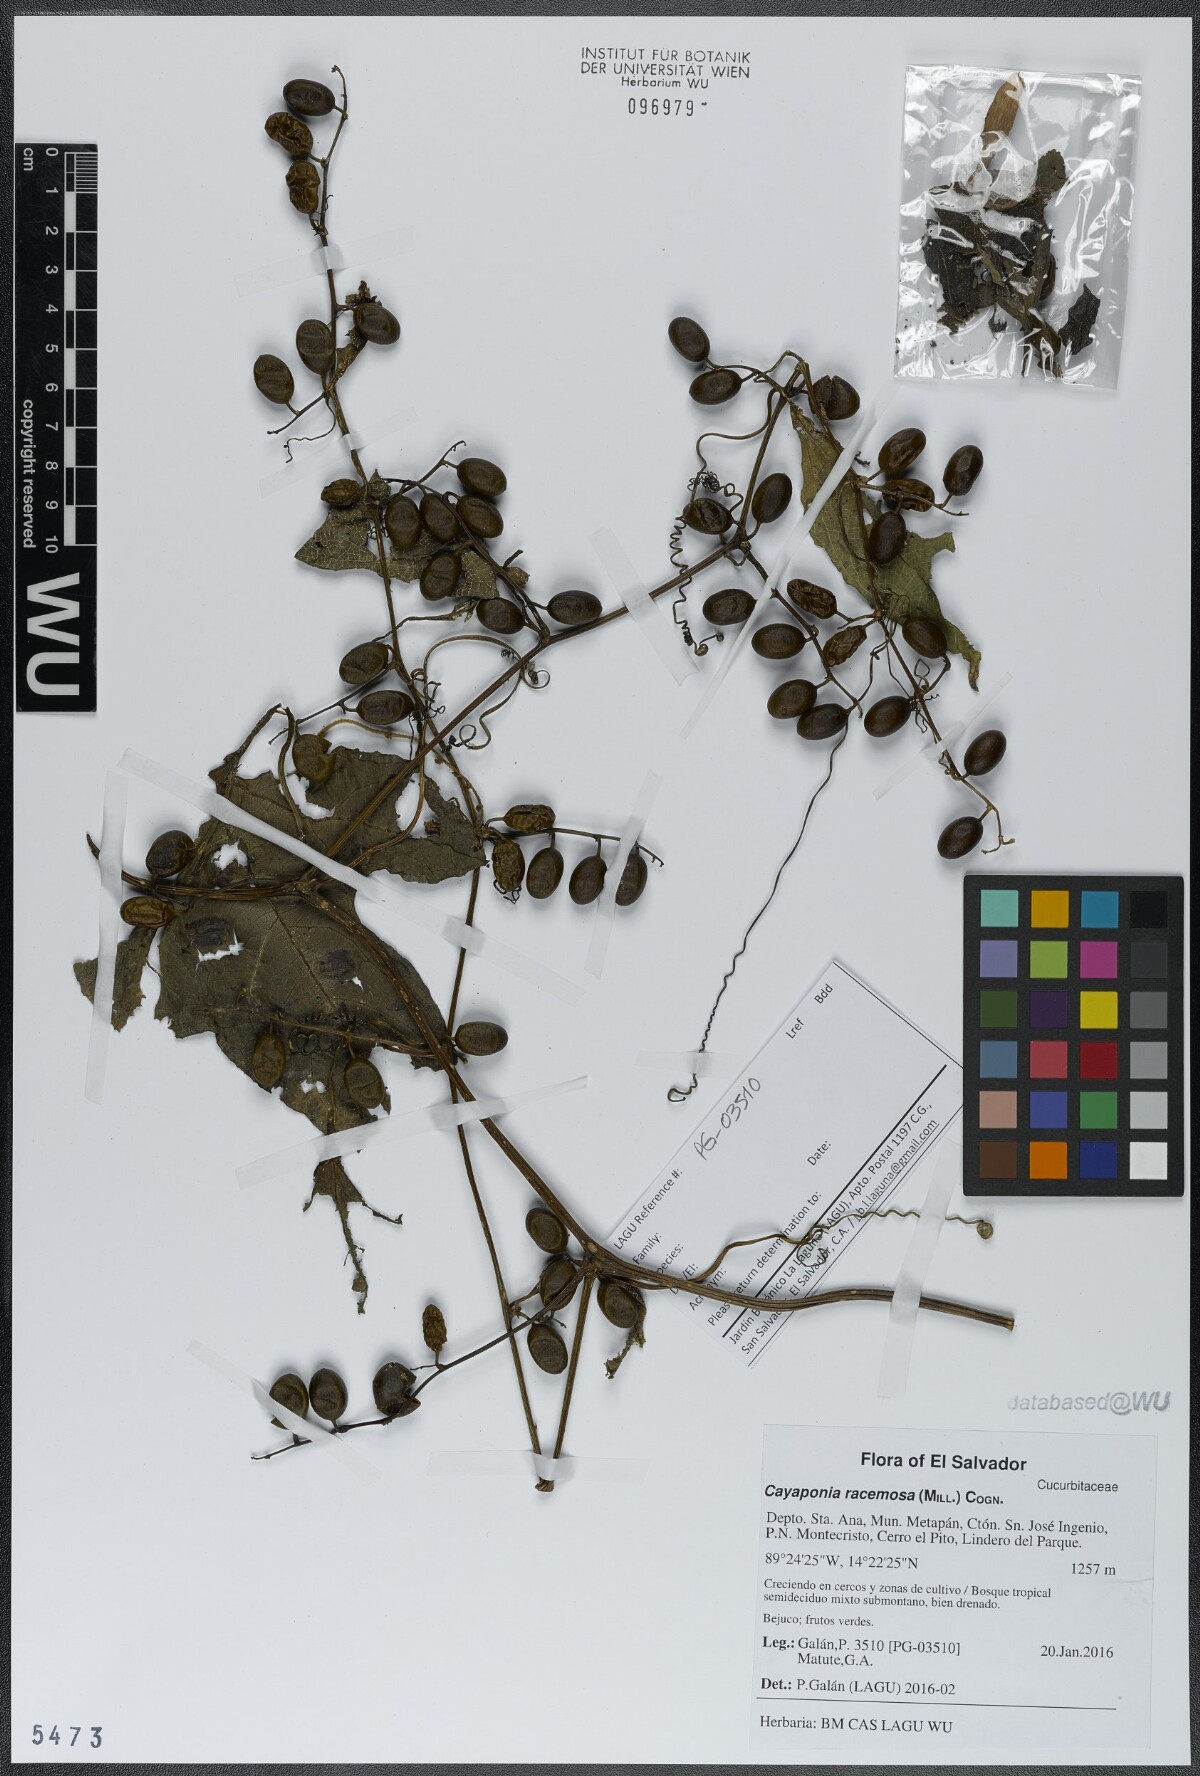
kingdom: Plantae
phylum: Tracheophyta
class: Magnoliopsida
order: Cucurbitales
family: Cucurbitaceae
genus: Cayaponia
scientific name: Cayaponia racemosa
